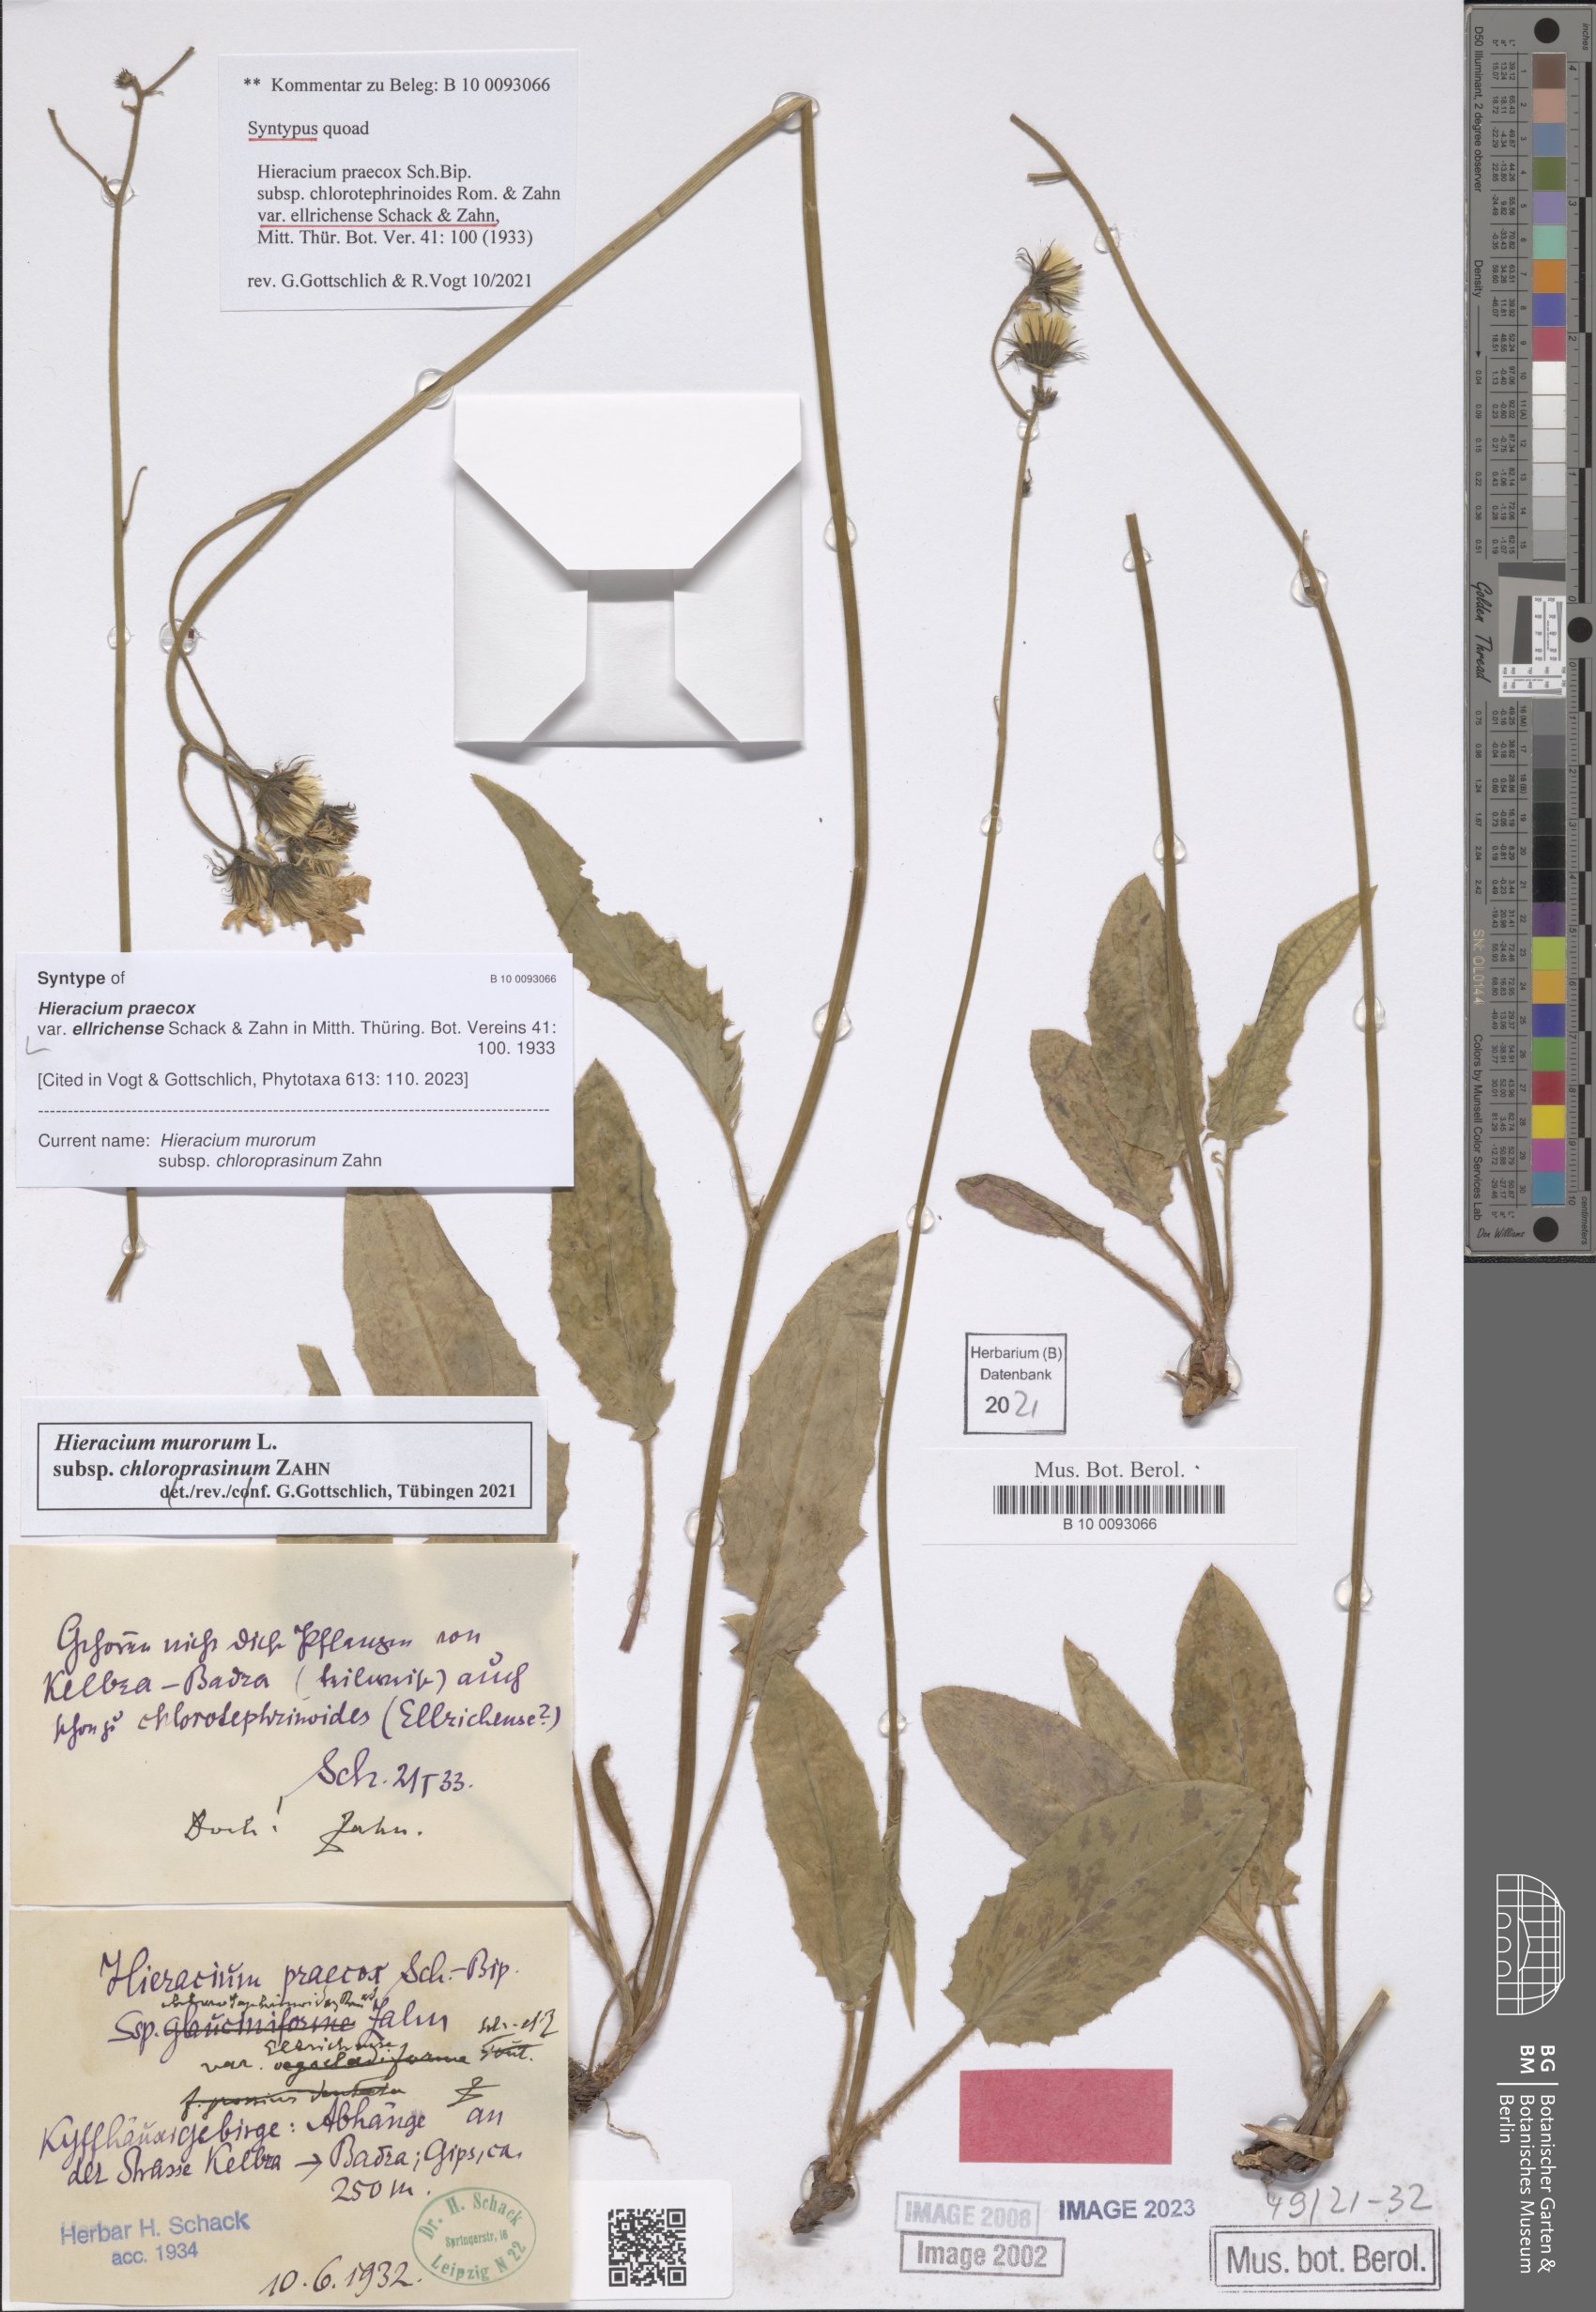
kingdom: Plantae
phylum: Tracheophyta
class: Magnoliopsida
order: Asterales
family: Asteraceae
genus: Hieracium
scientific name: Hieracium praecox
